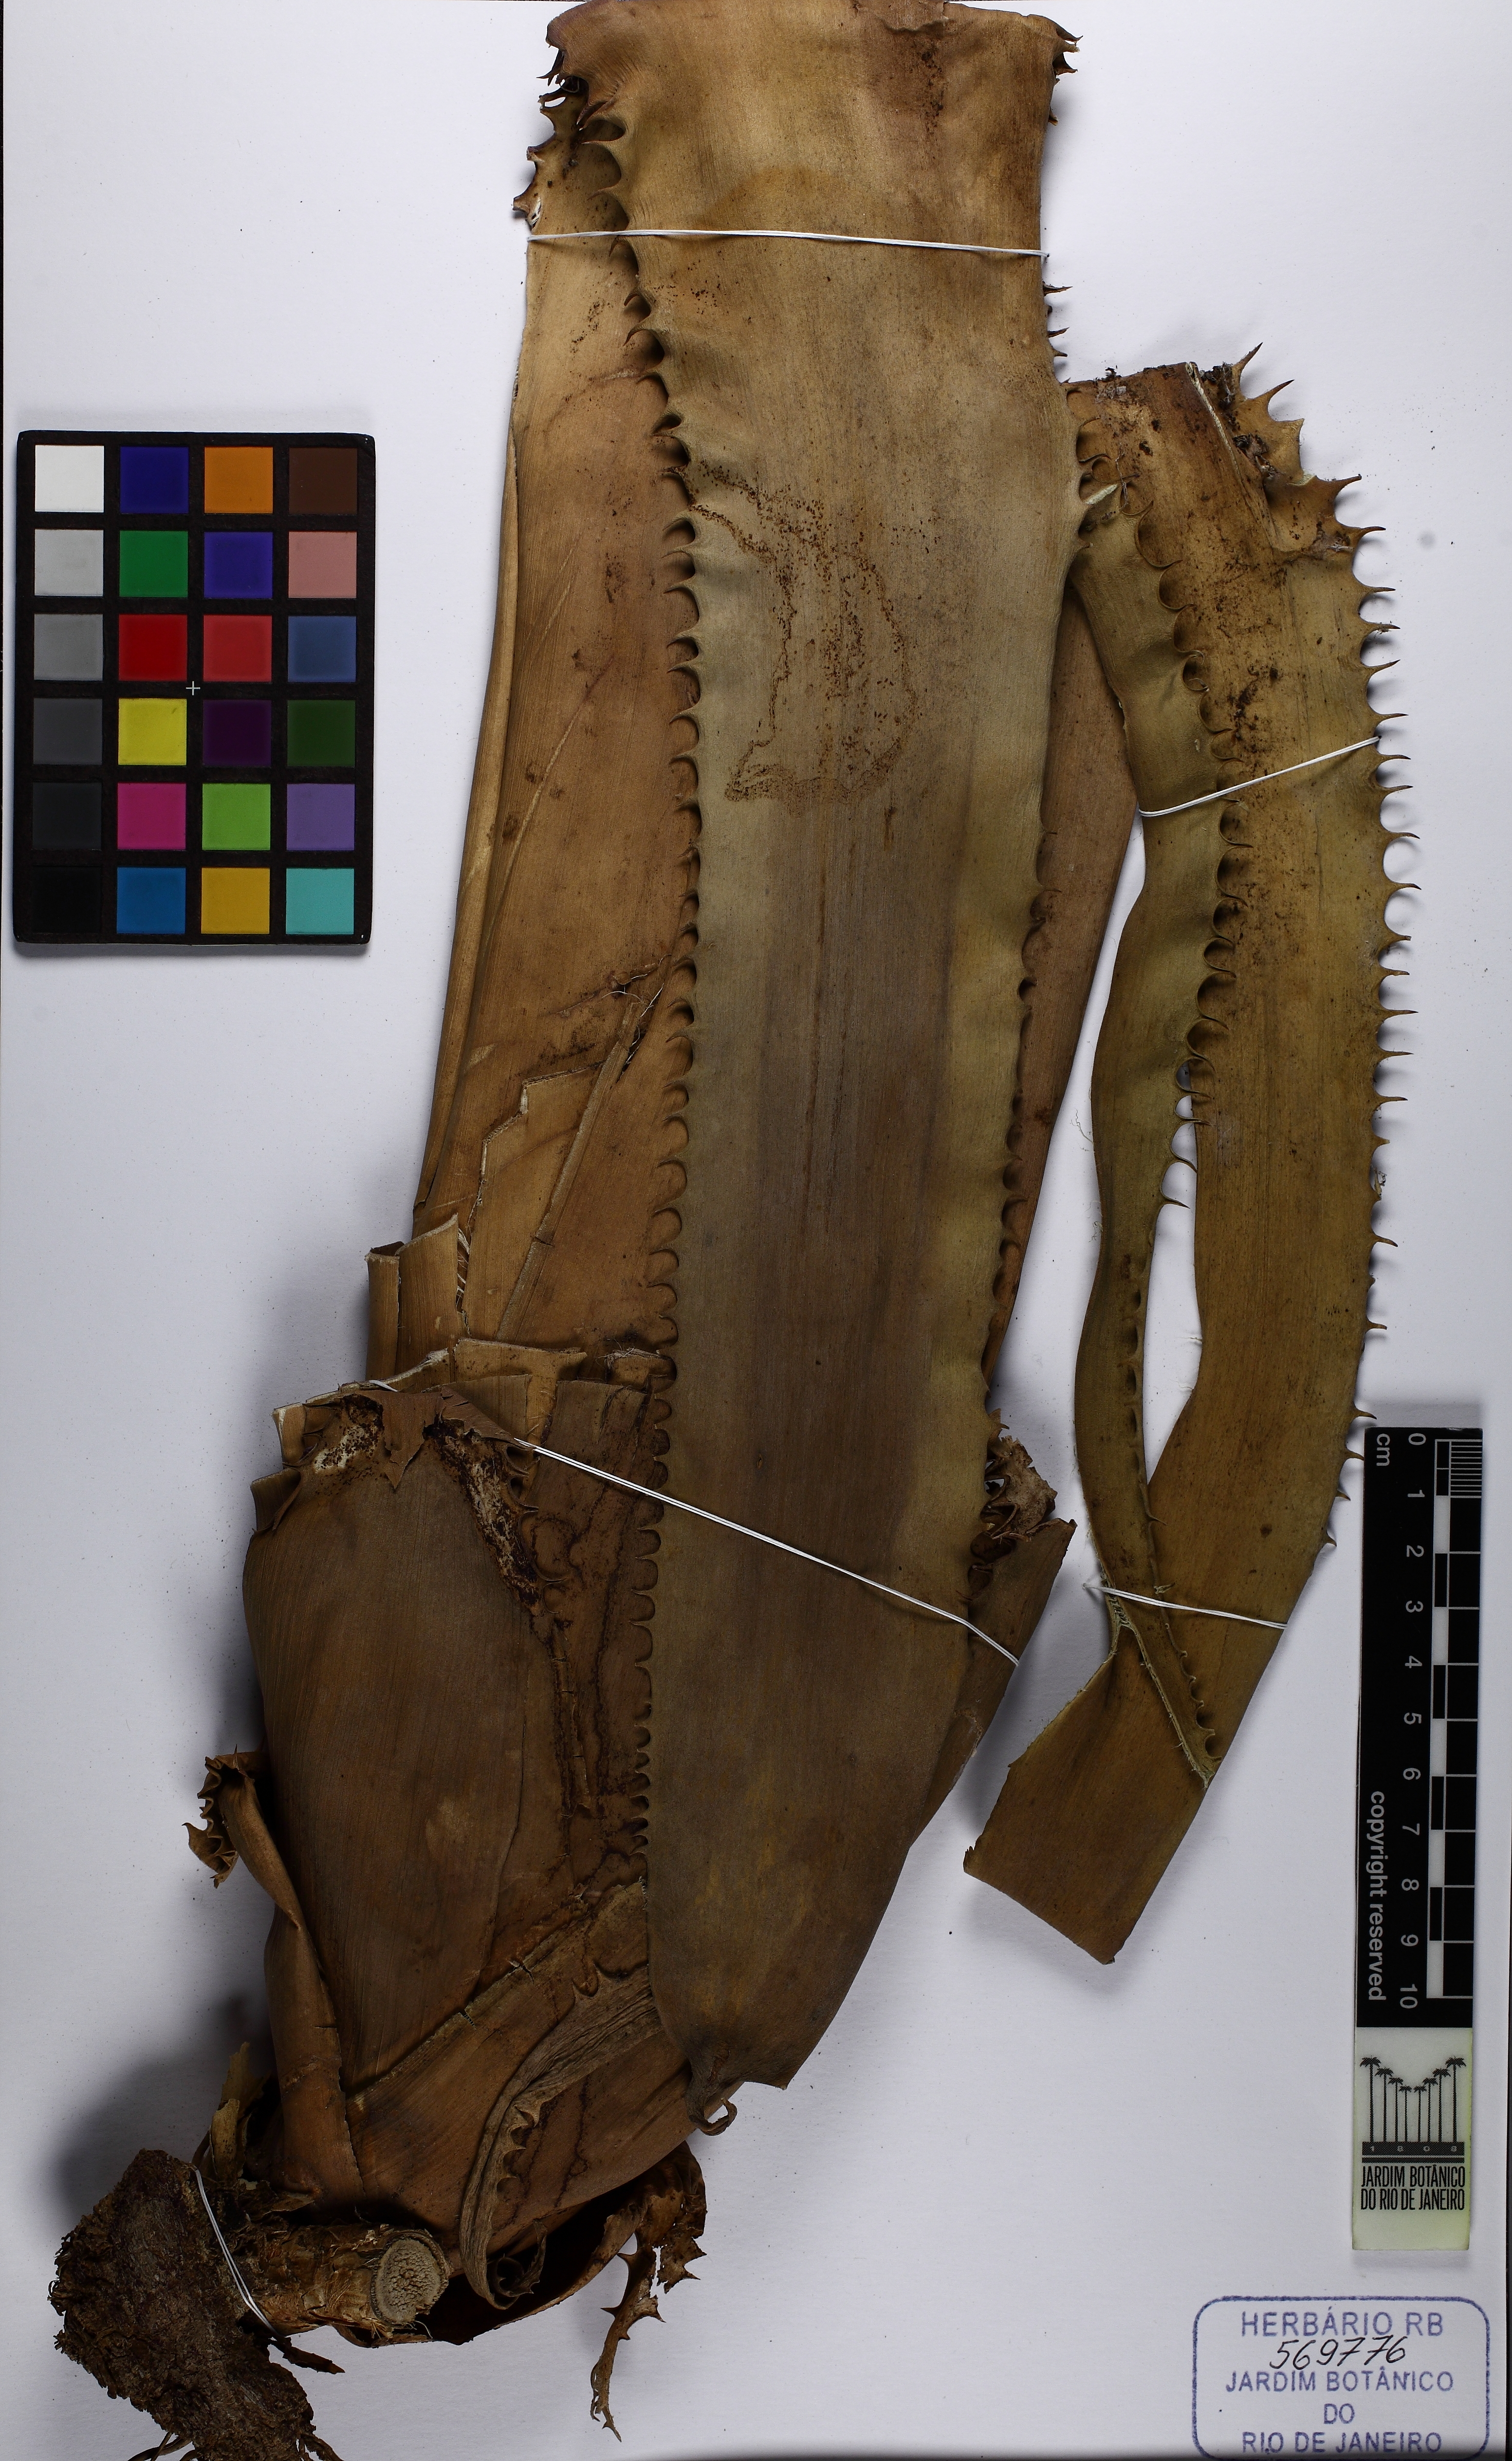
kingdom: Plantae
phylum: Tracheophyta
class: Liliopsida
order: Poales
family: Bromeliaceae
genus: Aechmea
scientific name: Aechmea tocantina
